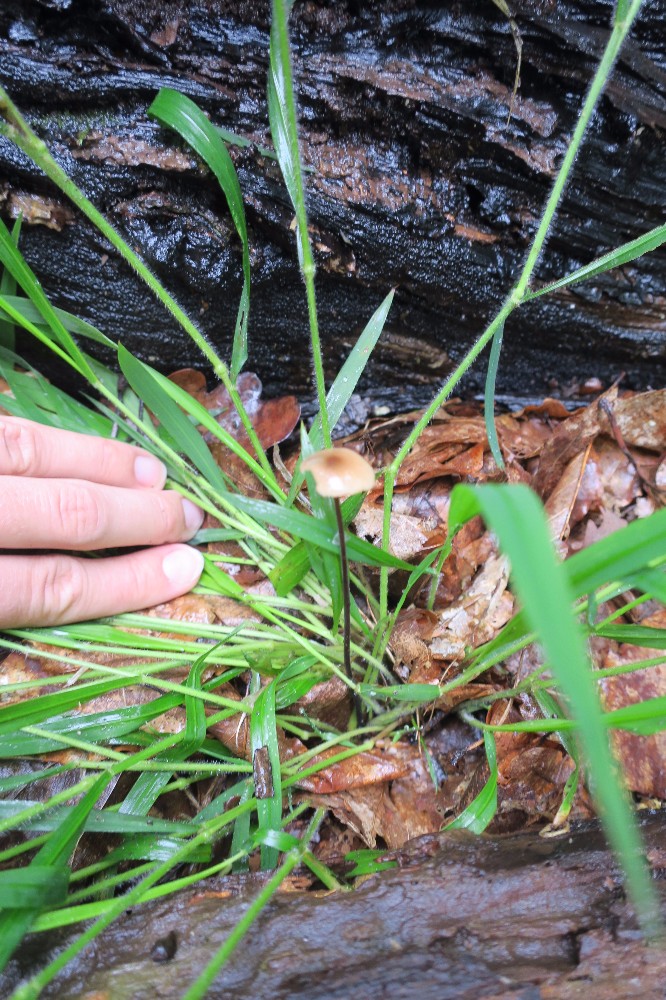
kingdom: Fungi
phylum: Basidiomycota
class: Agaricomycetes
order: Agaricales
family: Omphalotaceae
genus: Mycetinis
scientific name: Mycetinis alliaceus
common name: stor løghat
